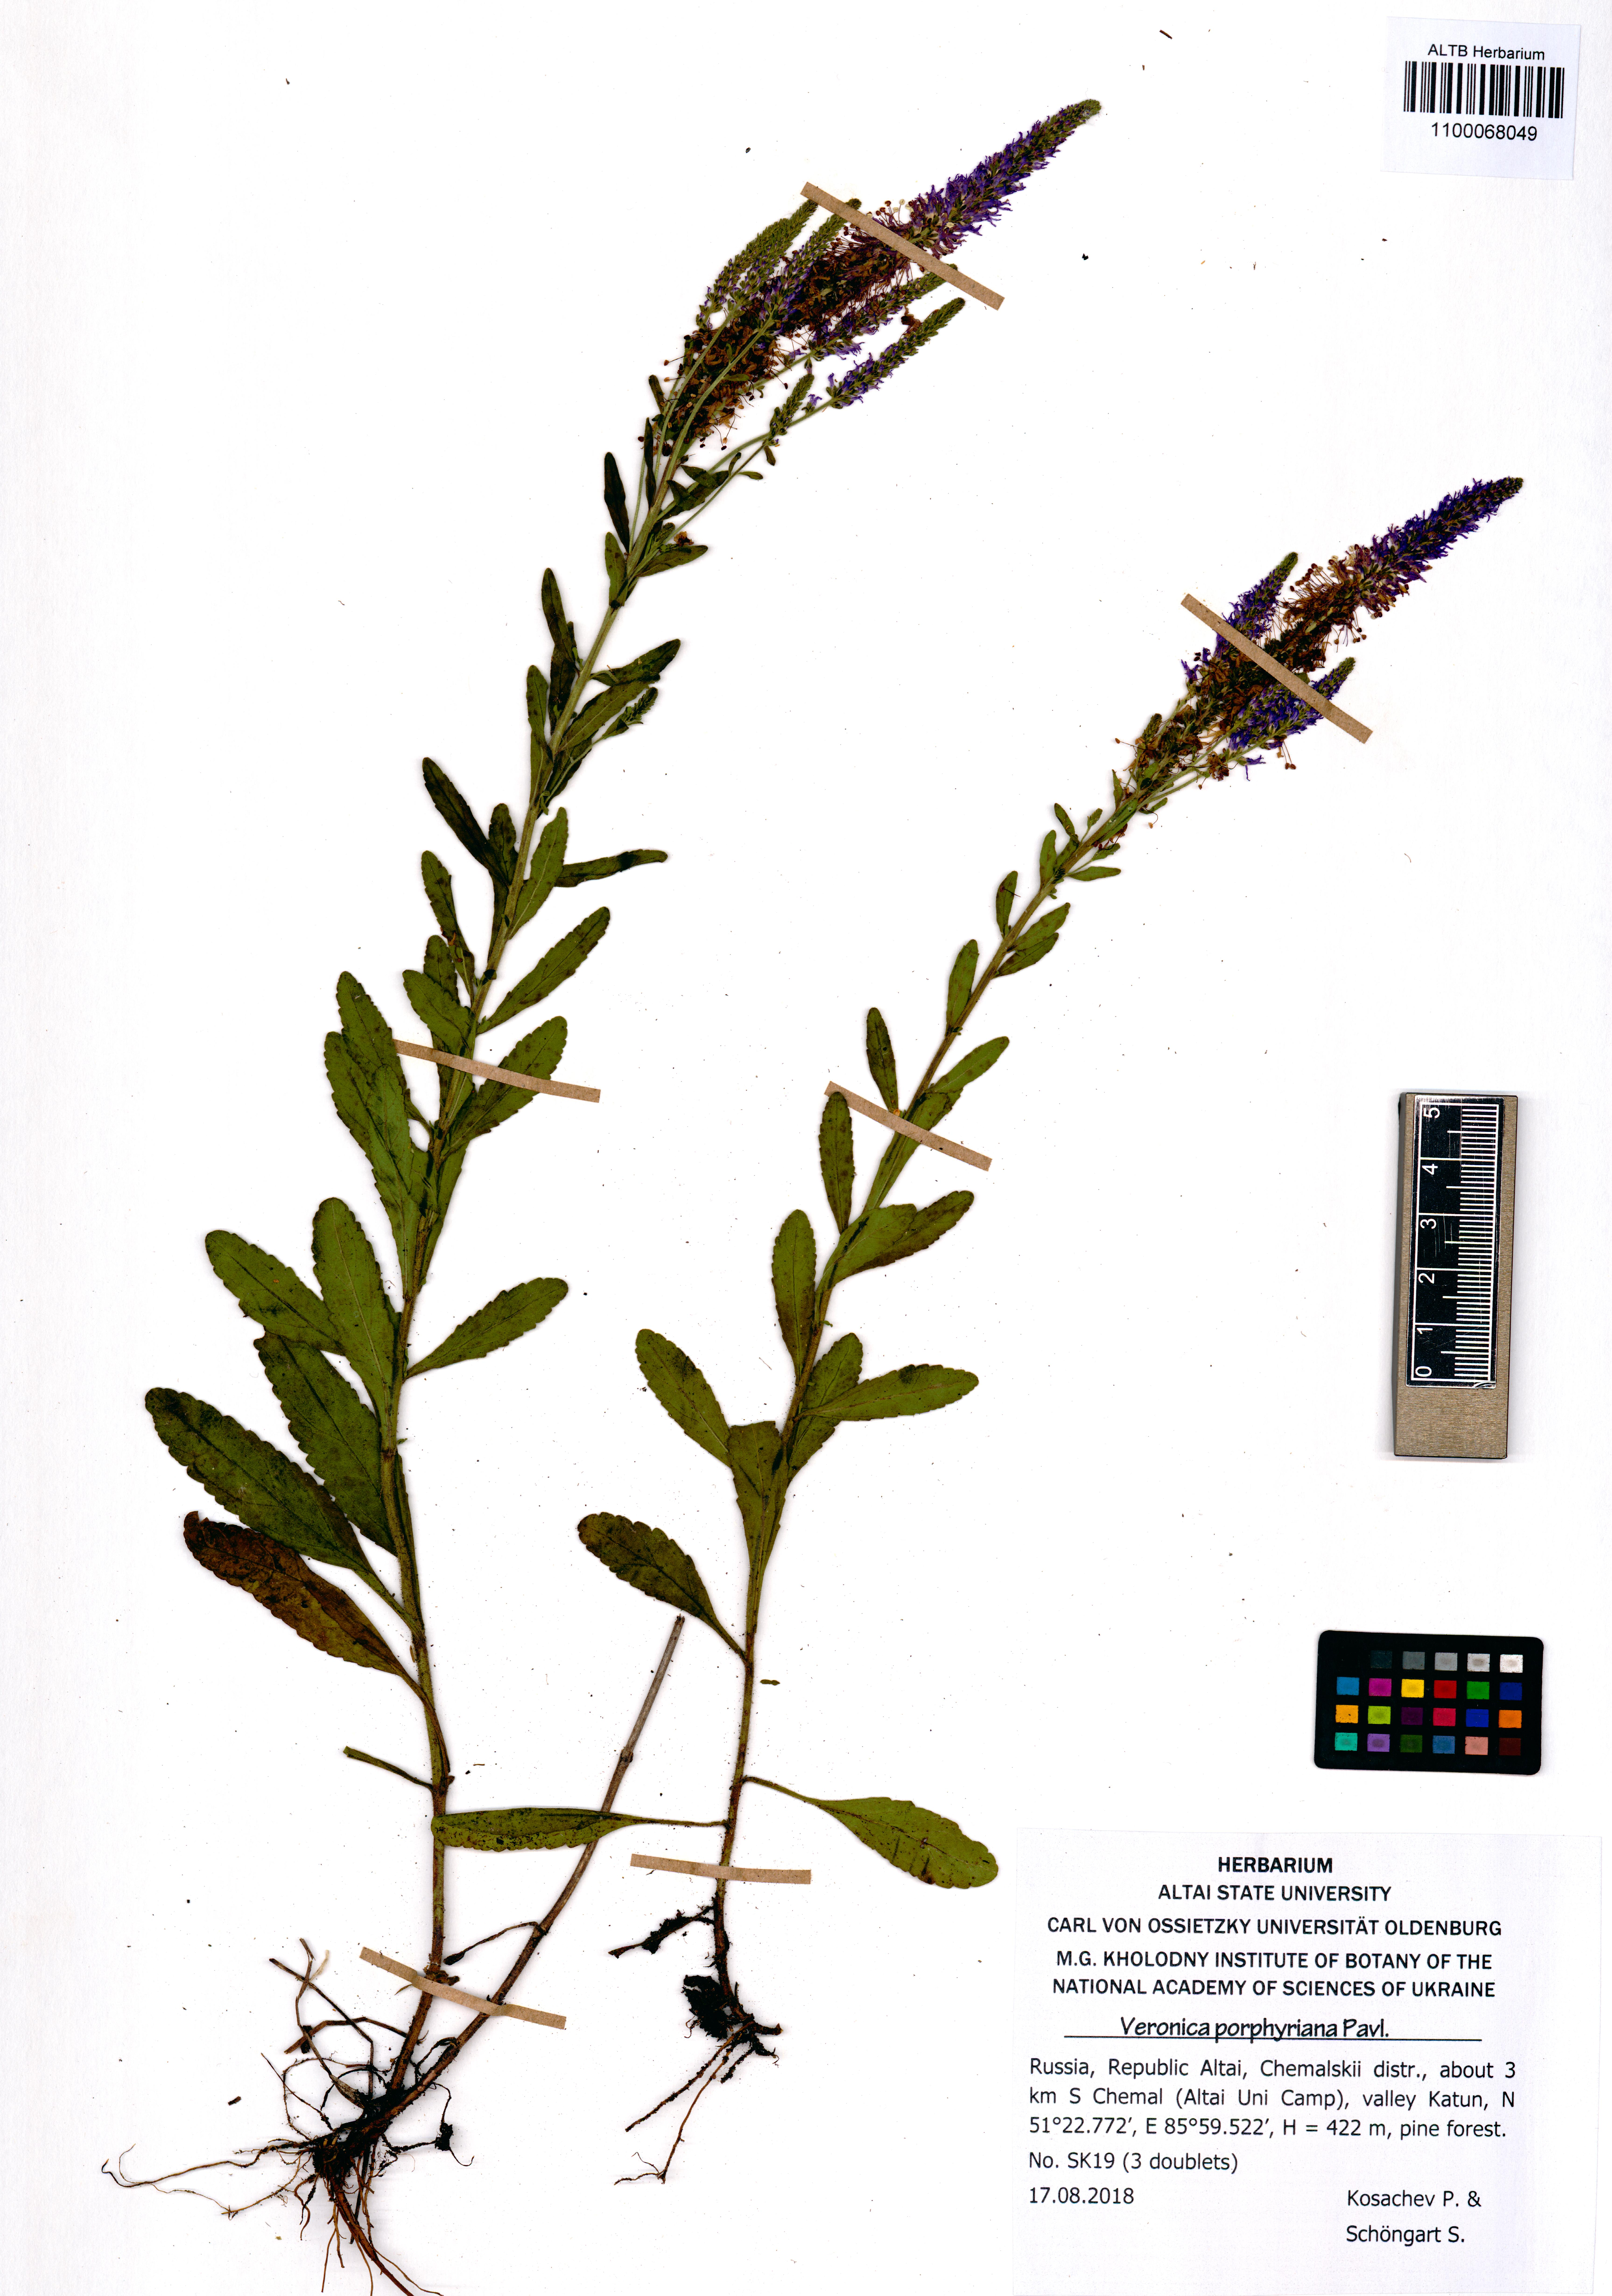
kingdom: Plantae
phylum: Tracheophyta
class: Magnoliopsida
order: Lamiales
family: Plantaginaceae
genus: Veronica
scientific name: Veronica porphyriana
